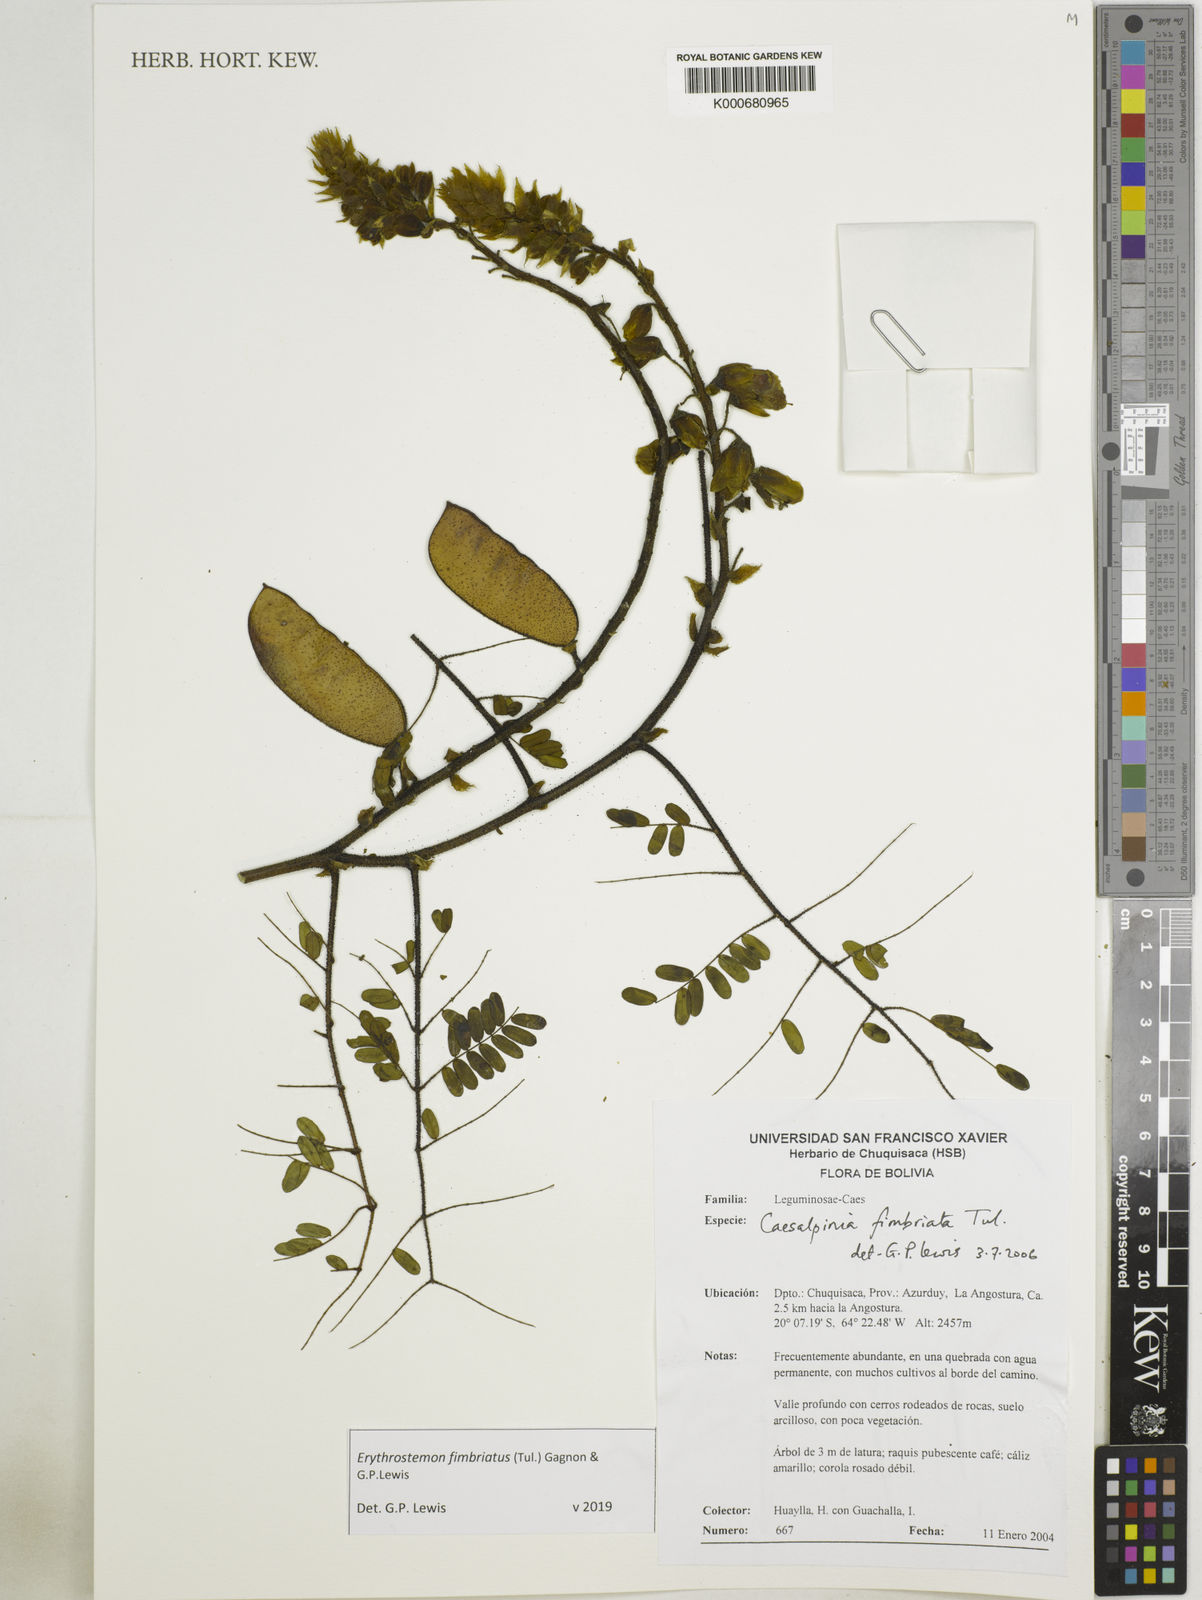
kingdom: Plantae
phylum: Tracheophyta
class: Magnoliopsida
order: Fabales
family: Fabaceae
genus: Erythrostemon
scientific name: Erythrostemon fimbriatus
